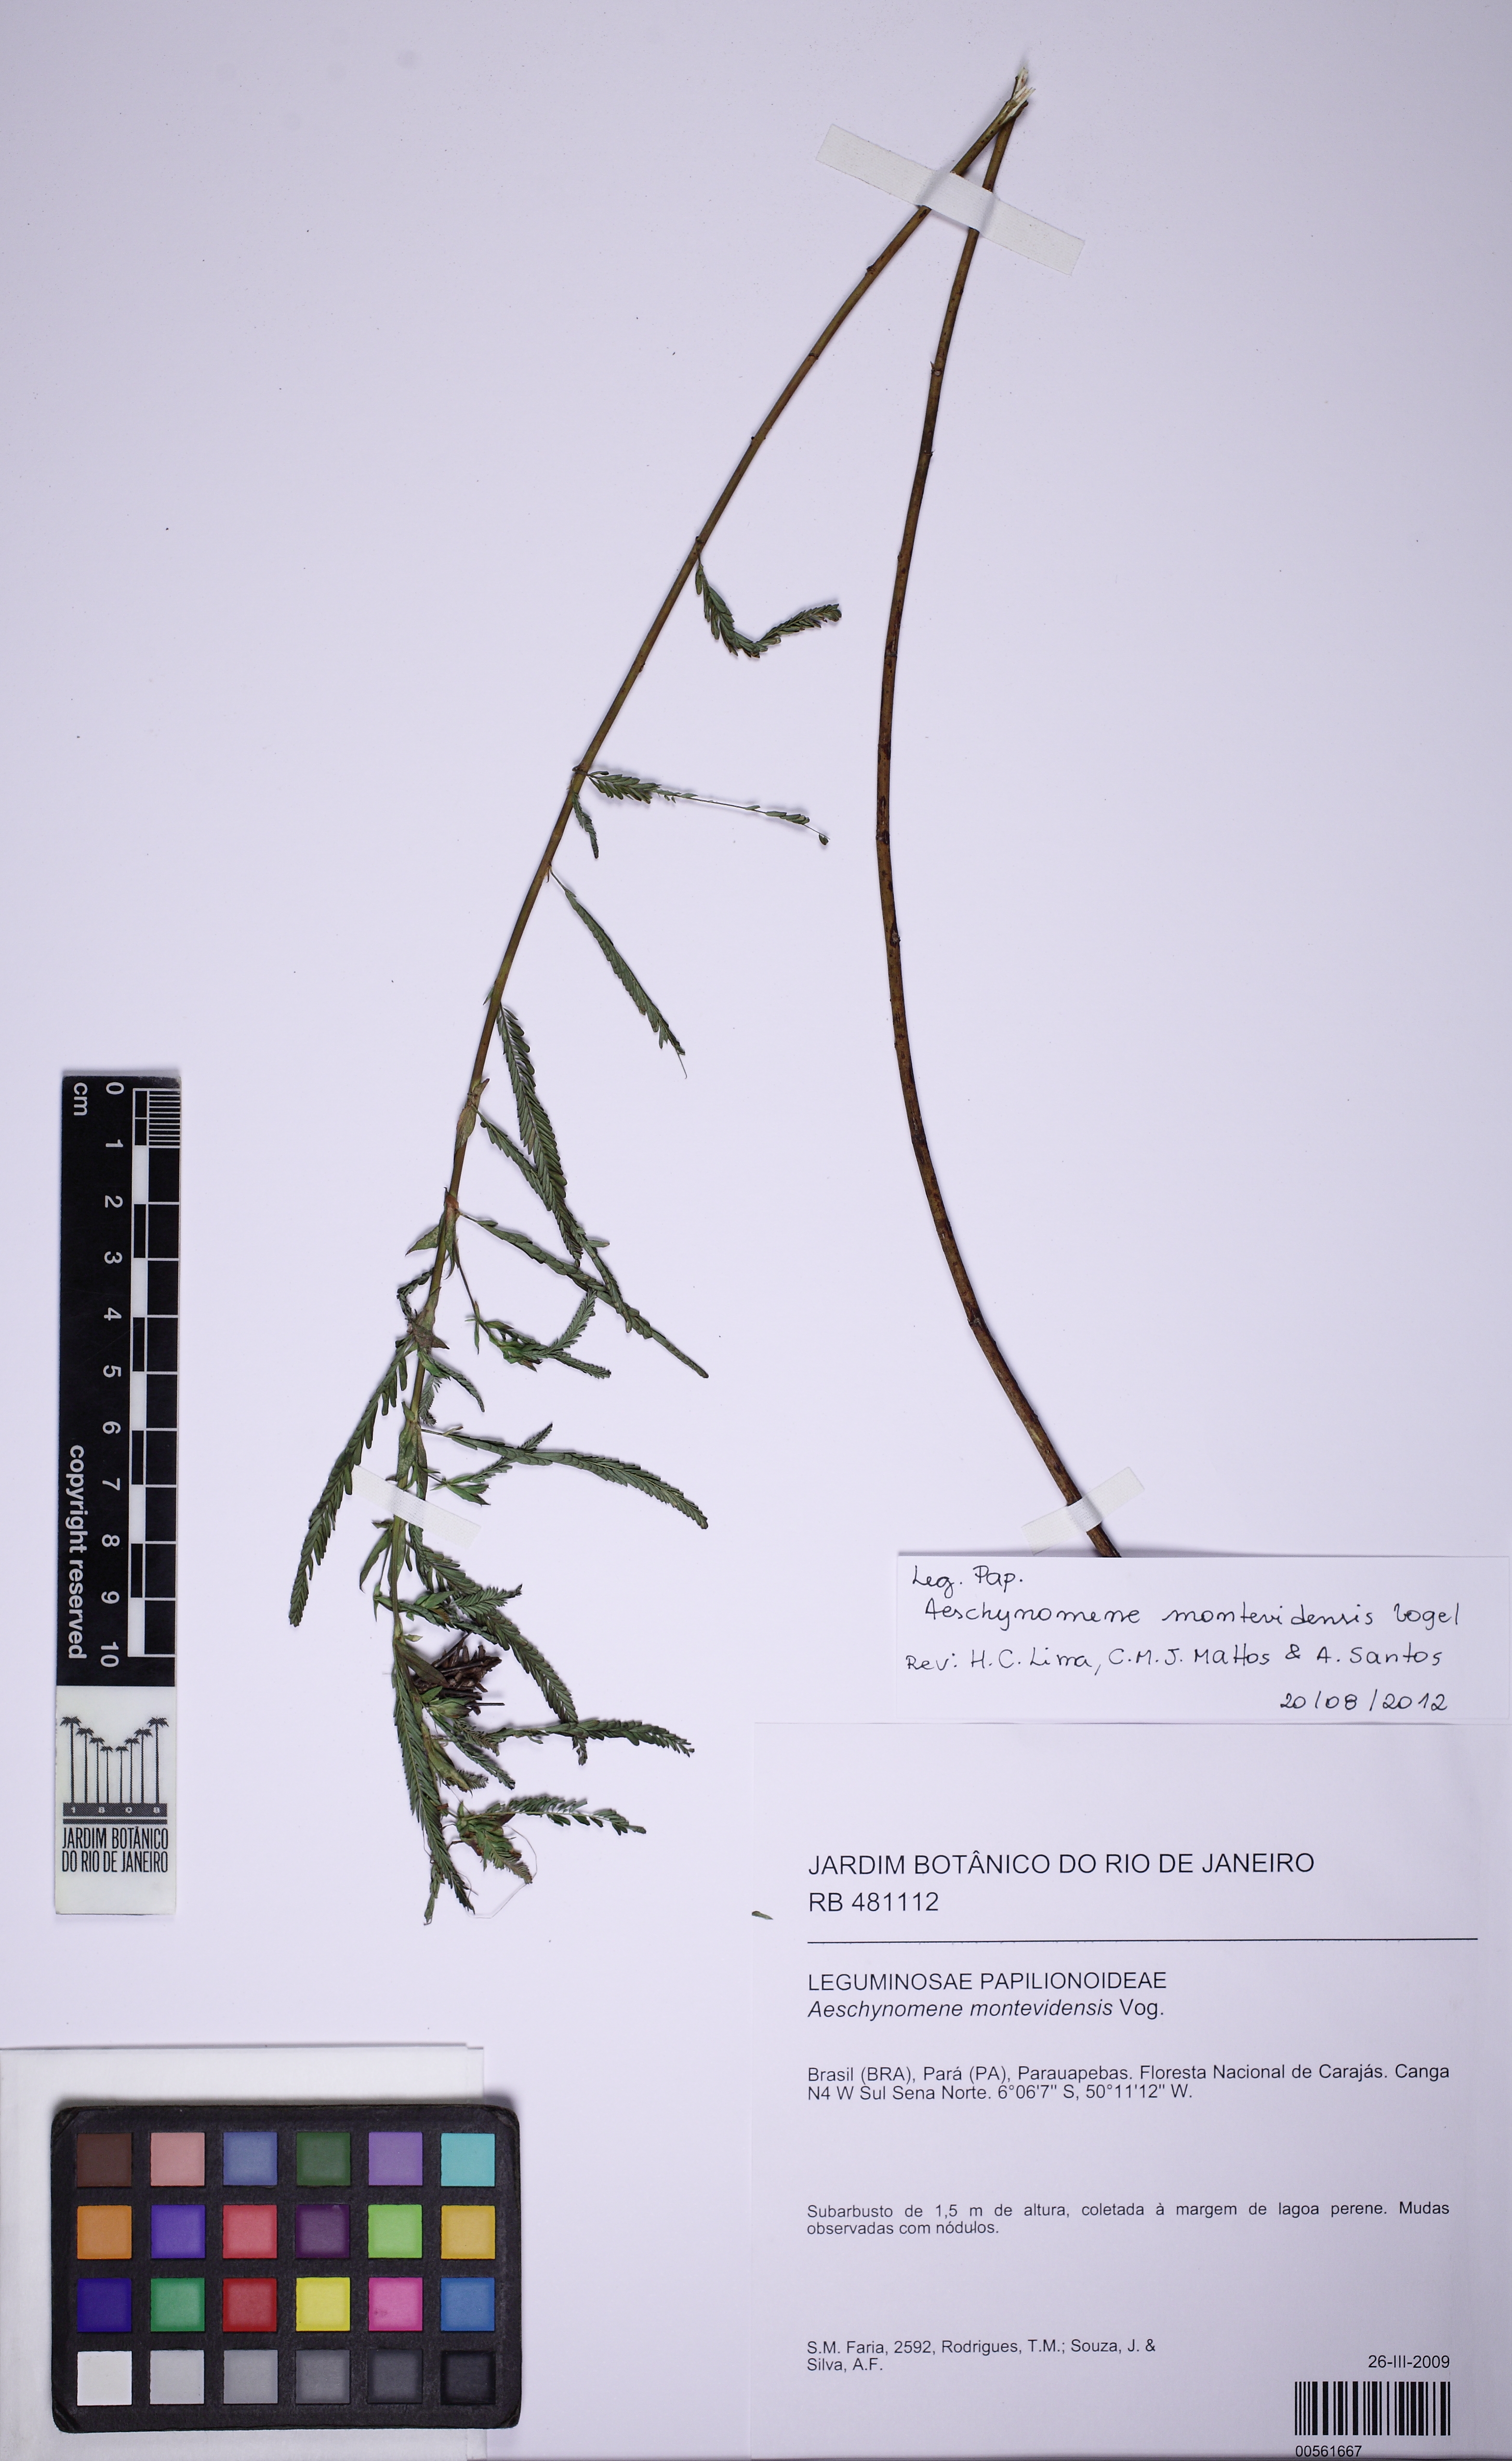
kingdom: Plantae
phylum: Tracheophyta
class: Magnoliopsida
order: Fabales
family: Fabaceae
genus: Aeschynomene
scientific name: Aeschynomene rudis
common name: Rough joint-vetch
